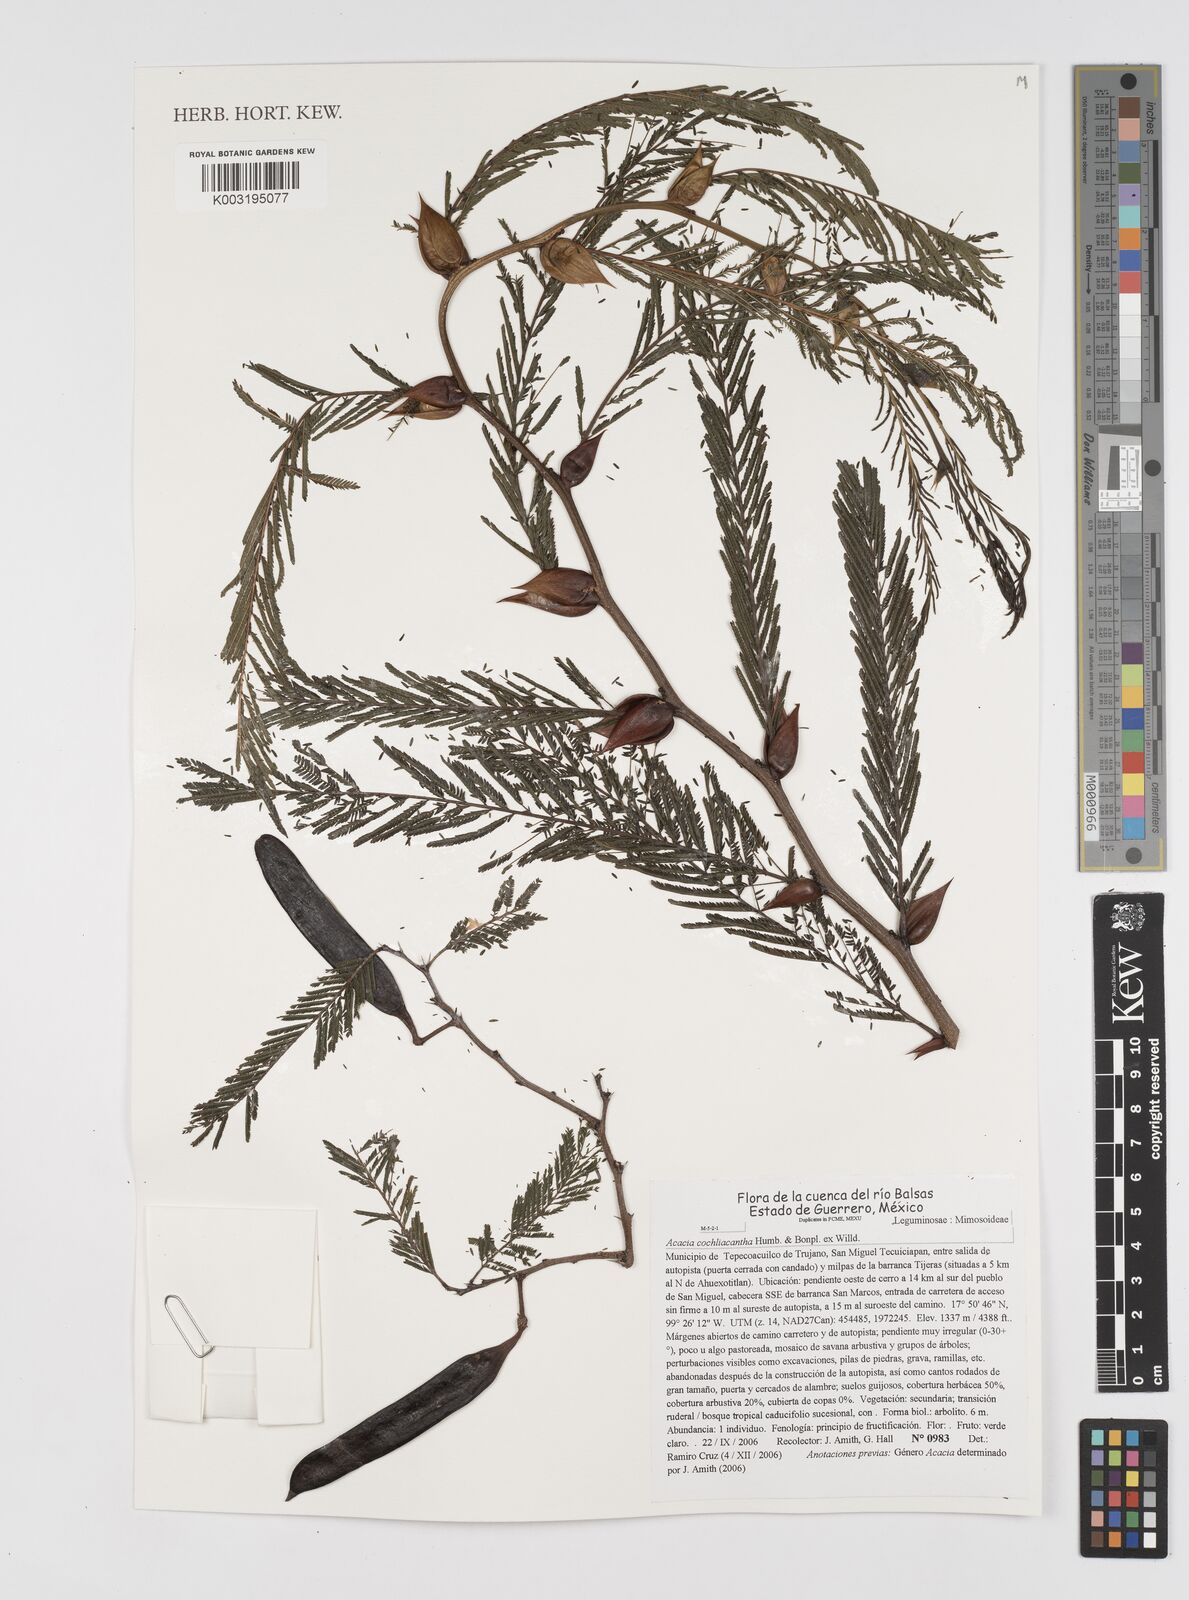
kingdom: Plantae
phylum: Tracheophyta
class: Magnoliopsida
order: Fabales
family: Fabaceae
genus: Vachellia
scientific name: Vachellia campeachiana
